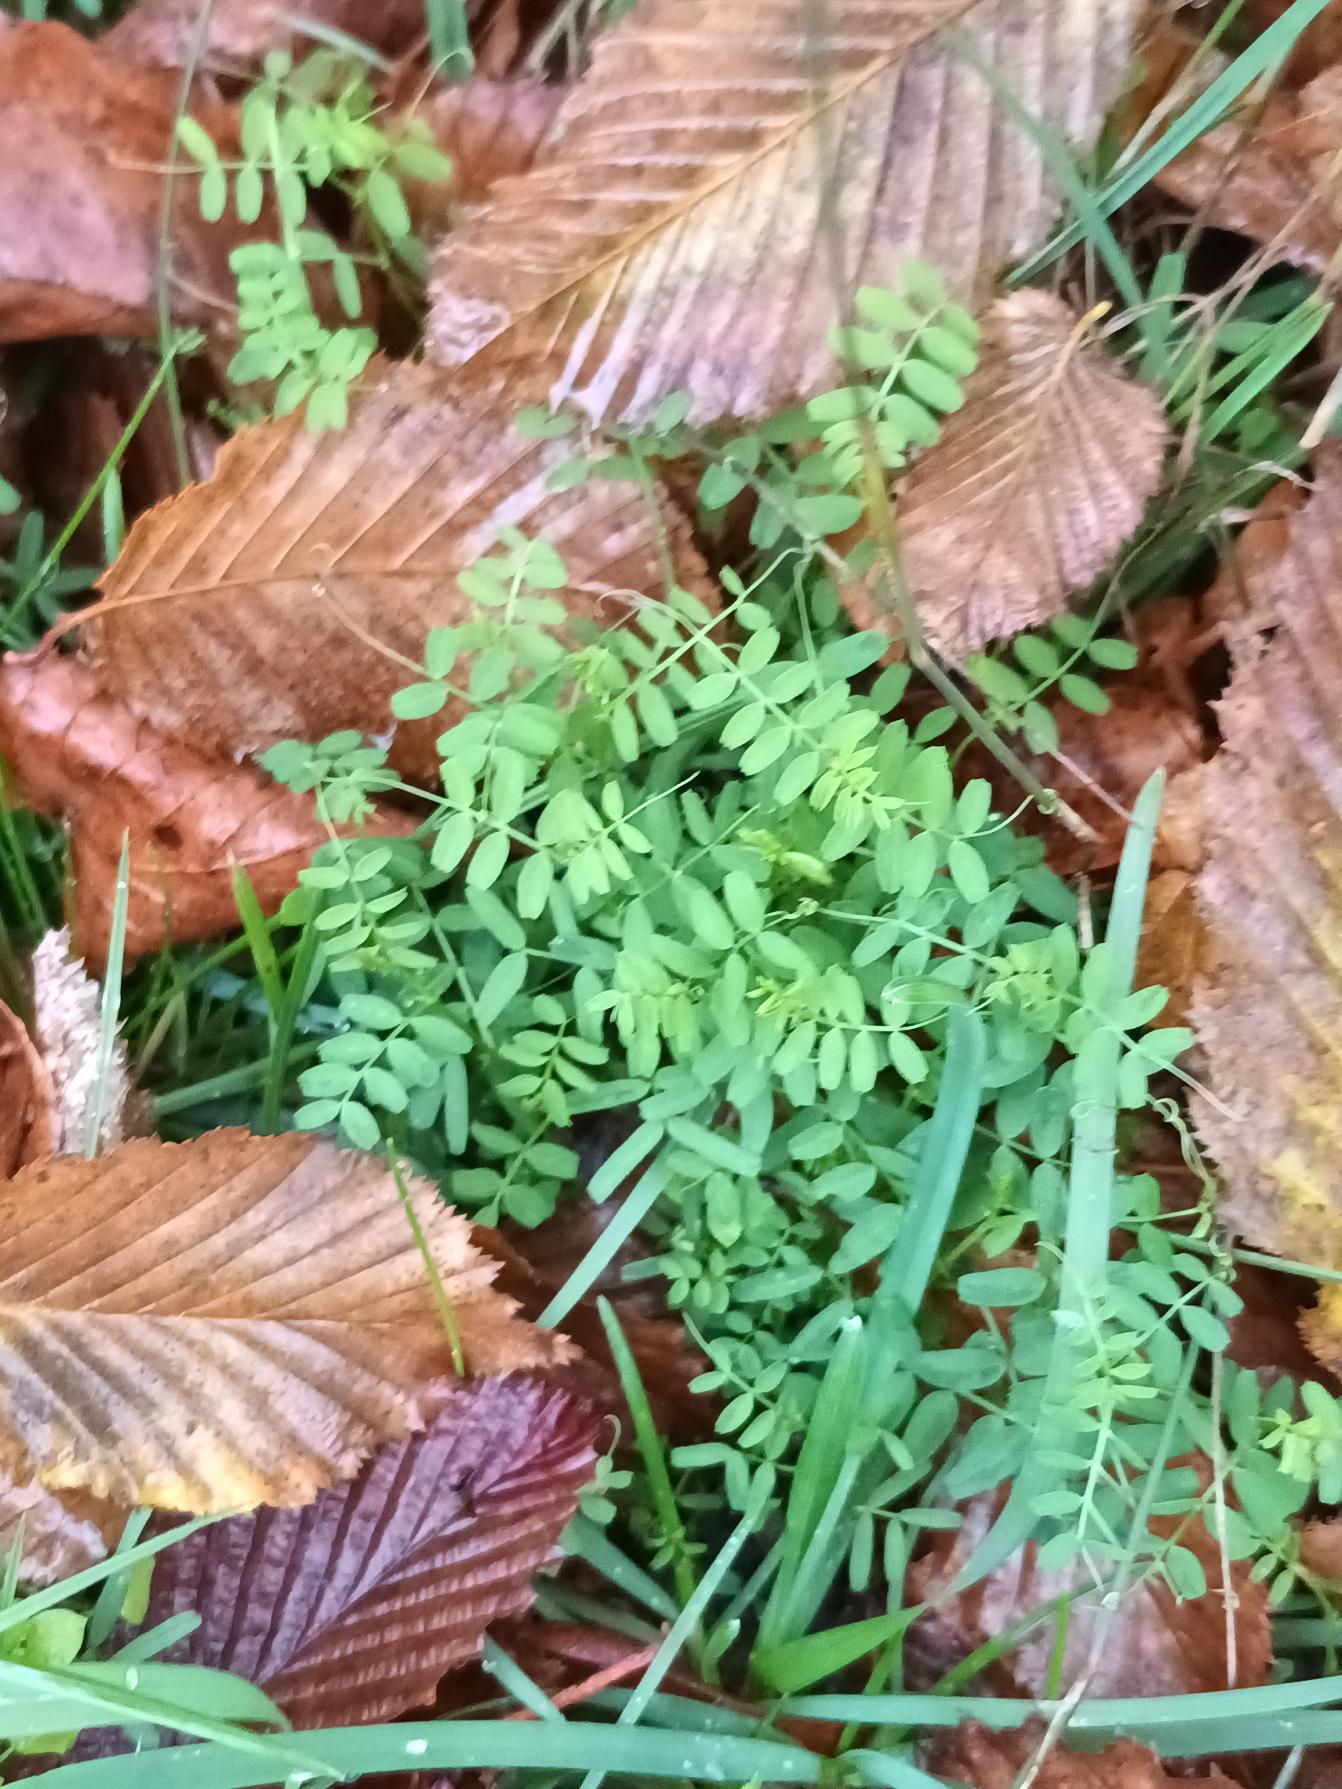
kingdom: Plantae
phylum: Tracheophyta
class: Magnoliopsida
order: Fabales
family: Fabaceae
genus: Vicia
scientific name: Vicia hirsuta
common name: Tofrøet vikke
